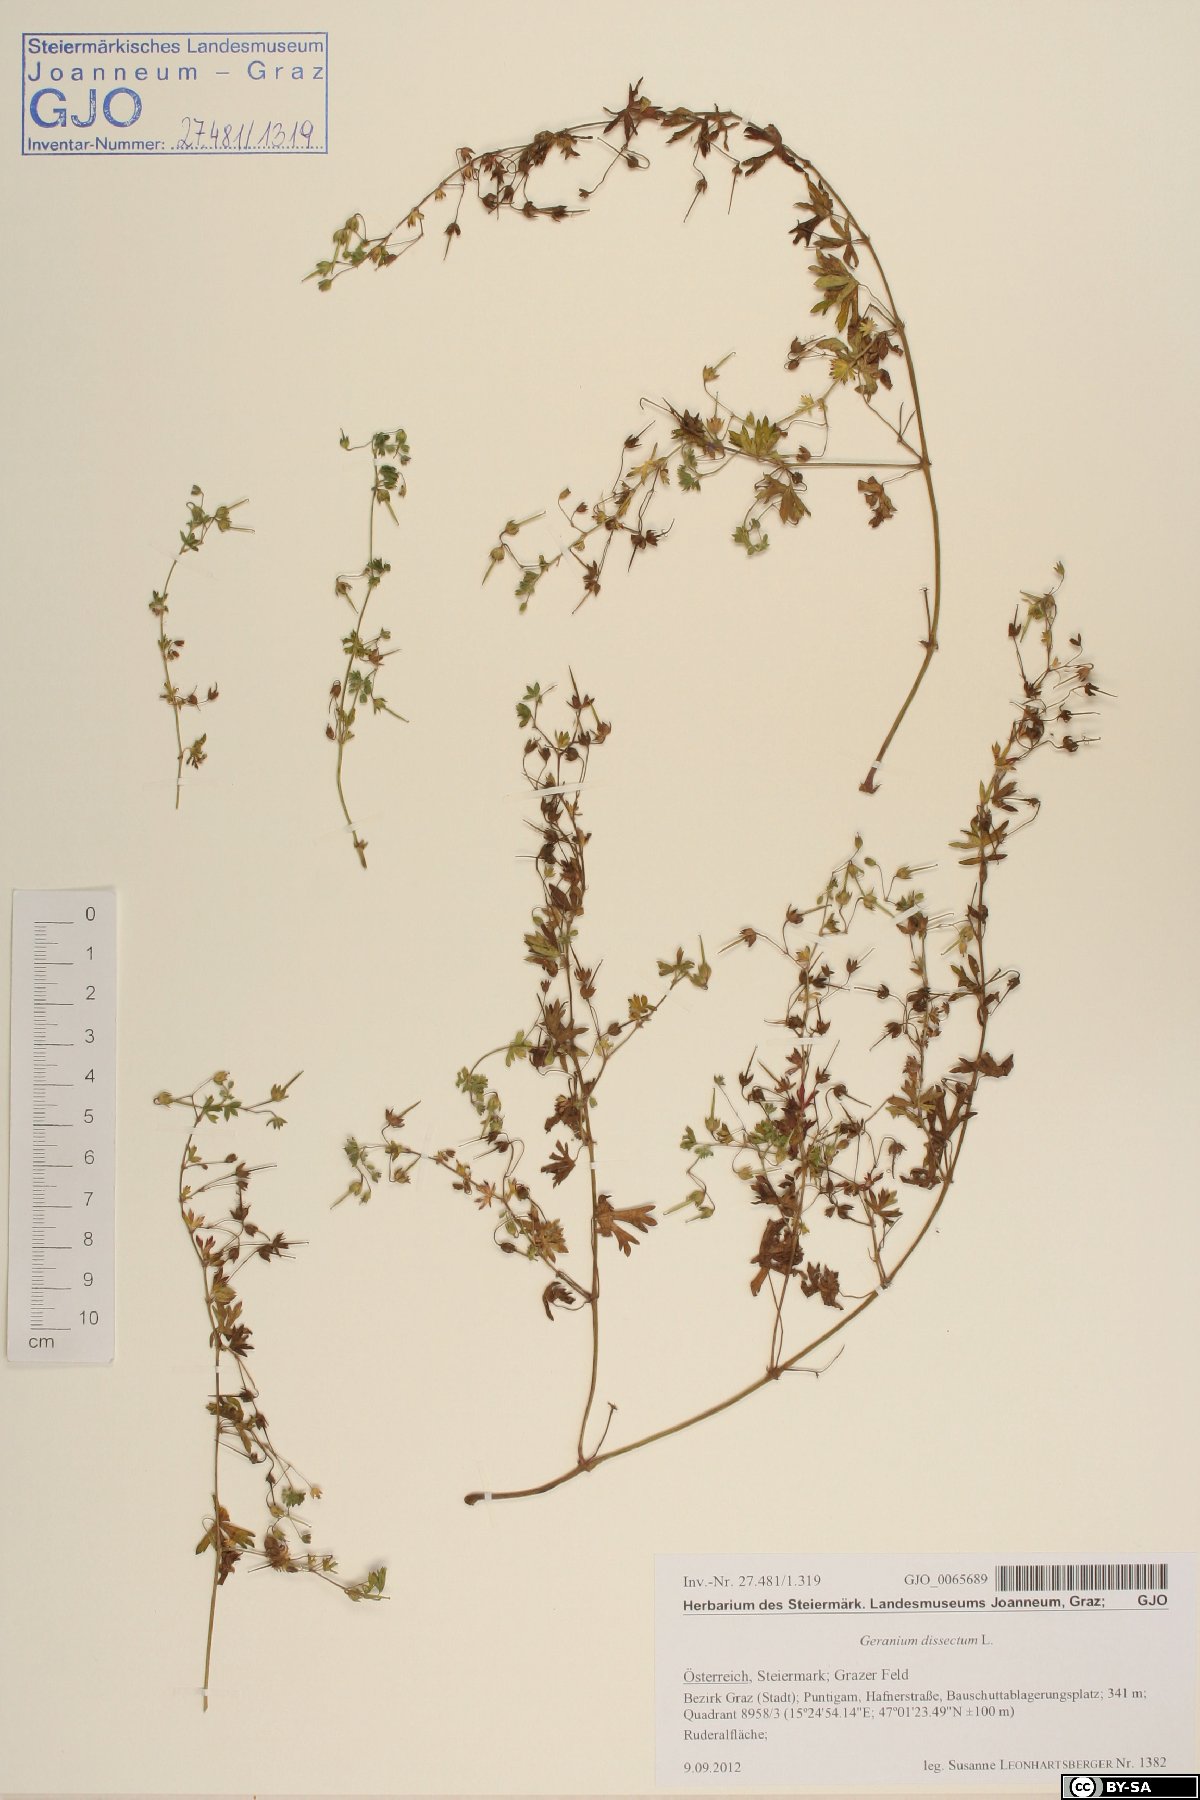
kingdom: Plantae
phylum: Tracheophyta
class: Magnoliopsida
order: Geraniales
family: Geraniaceae
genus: Geranium
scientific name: Geranium pusillum
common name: Small geranium
